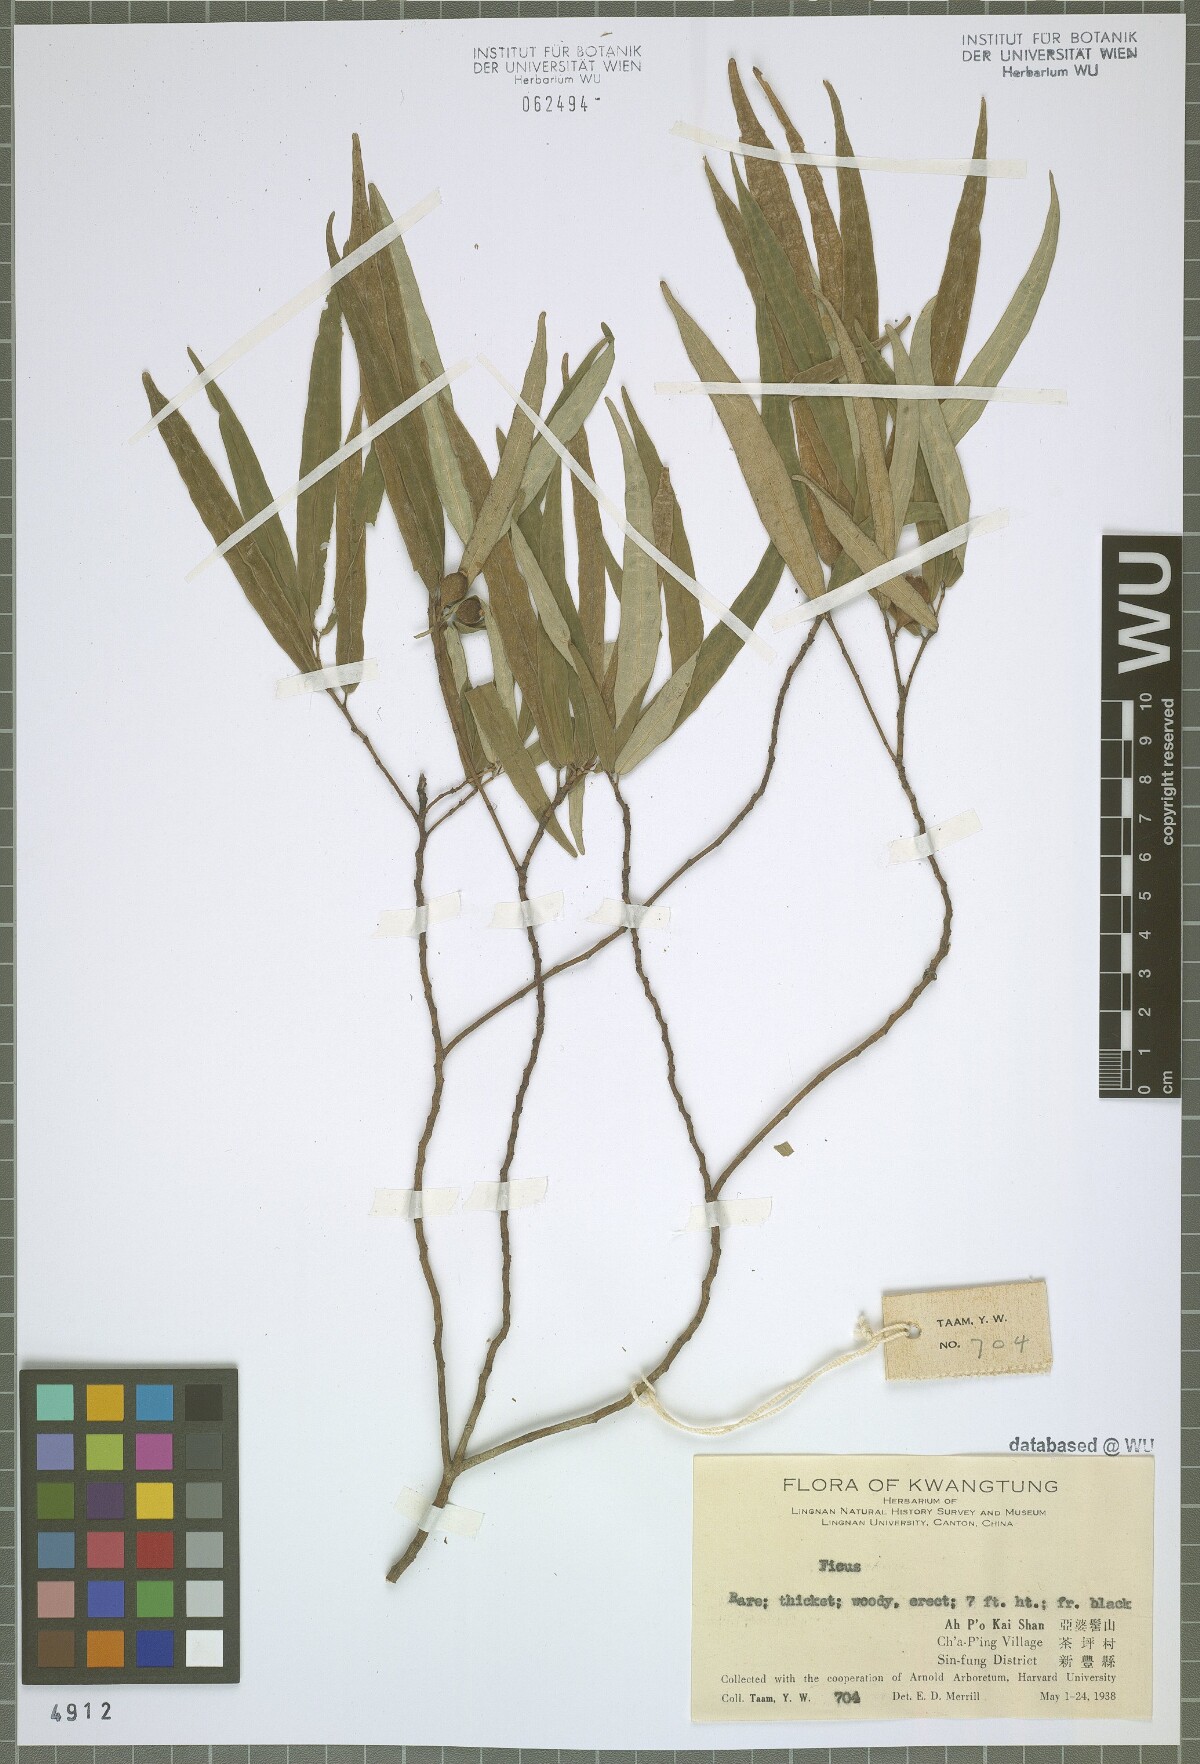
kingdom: Plantae
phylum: Tracheophyta
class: Magnoliopsida
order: Rosales
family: Moraceae
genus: Ficus
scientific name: Ficus
